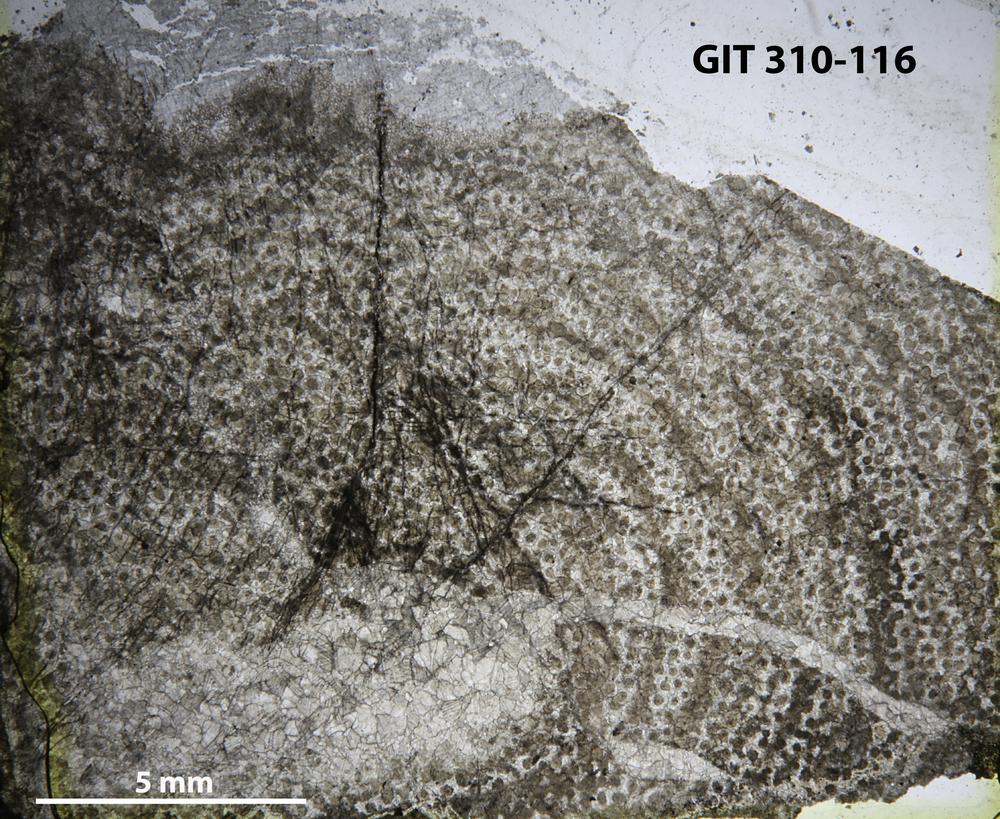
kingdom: Animalia
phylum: Porifera
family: Labechiidae
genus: Labechiella
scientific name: Labechiella regularis
